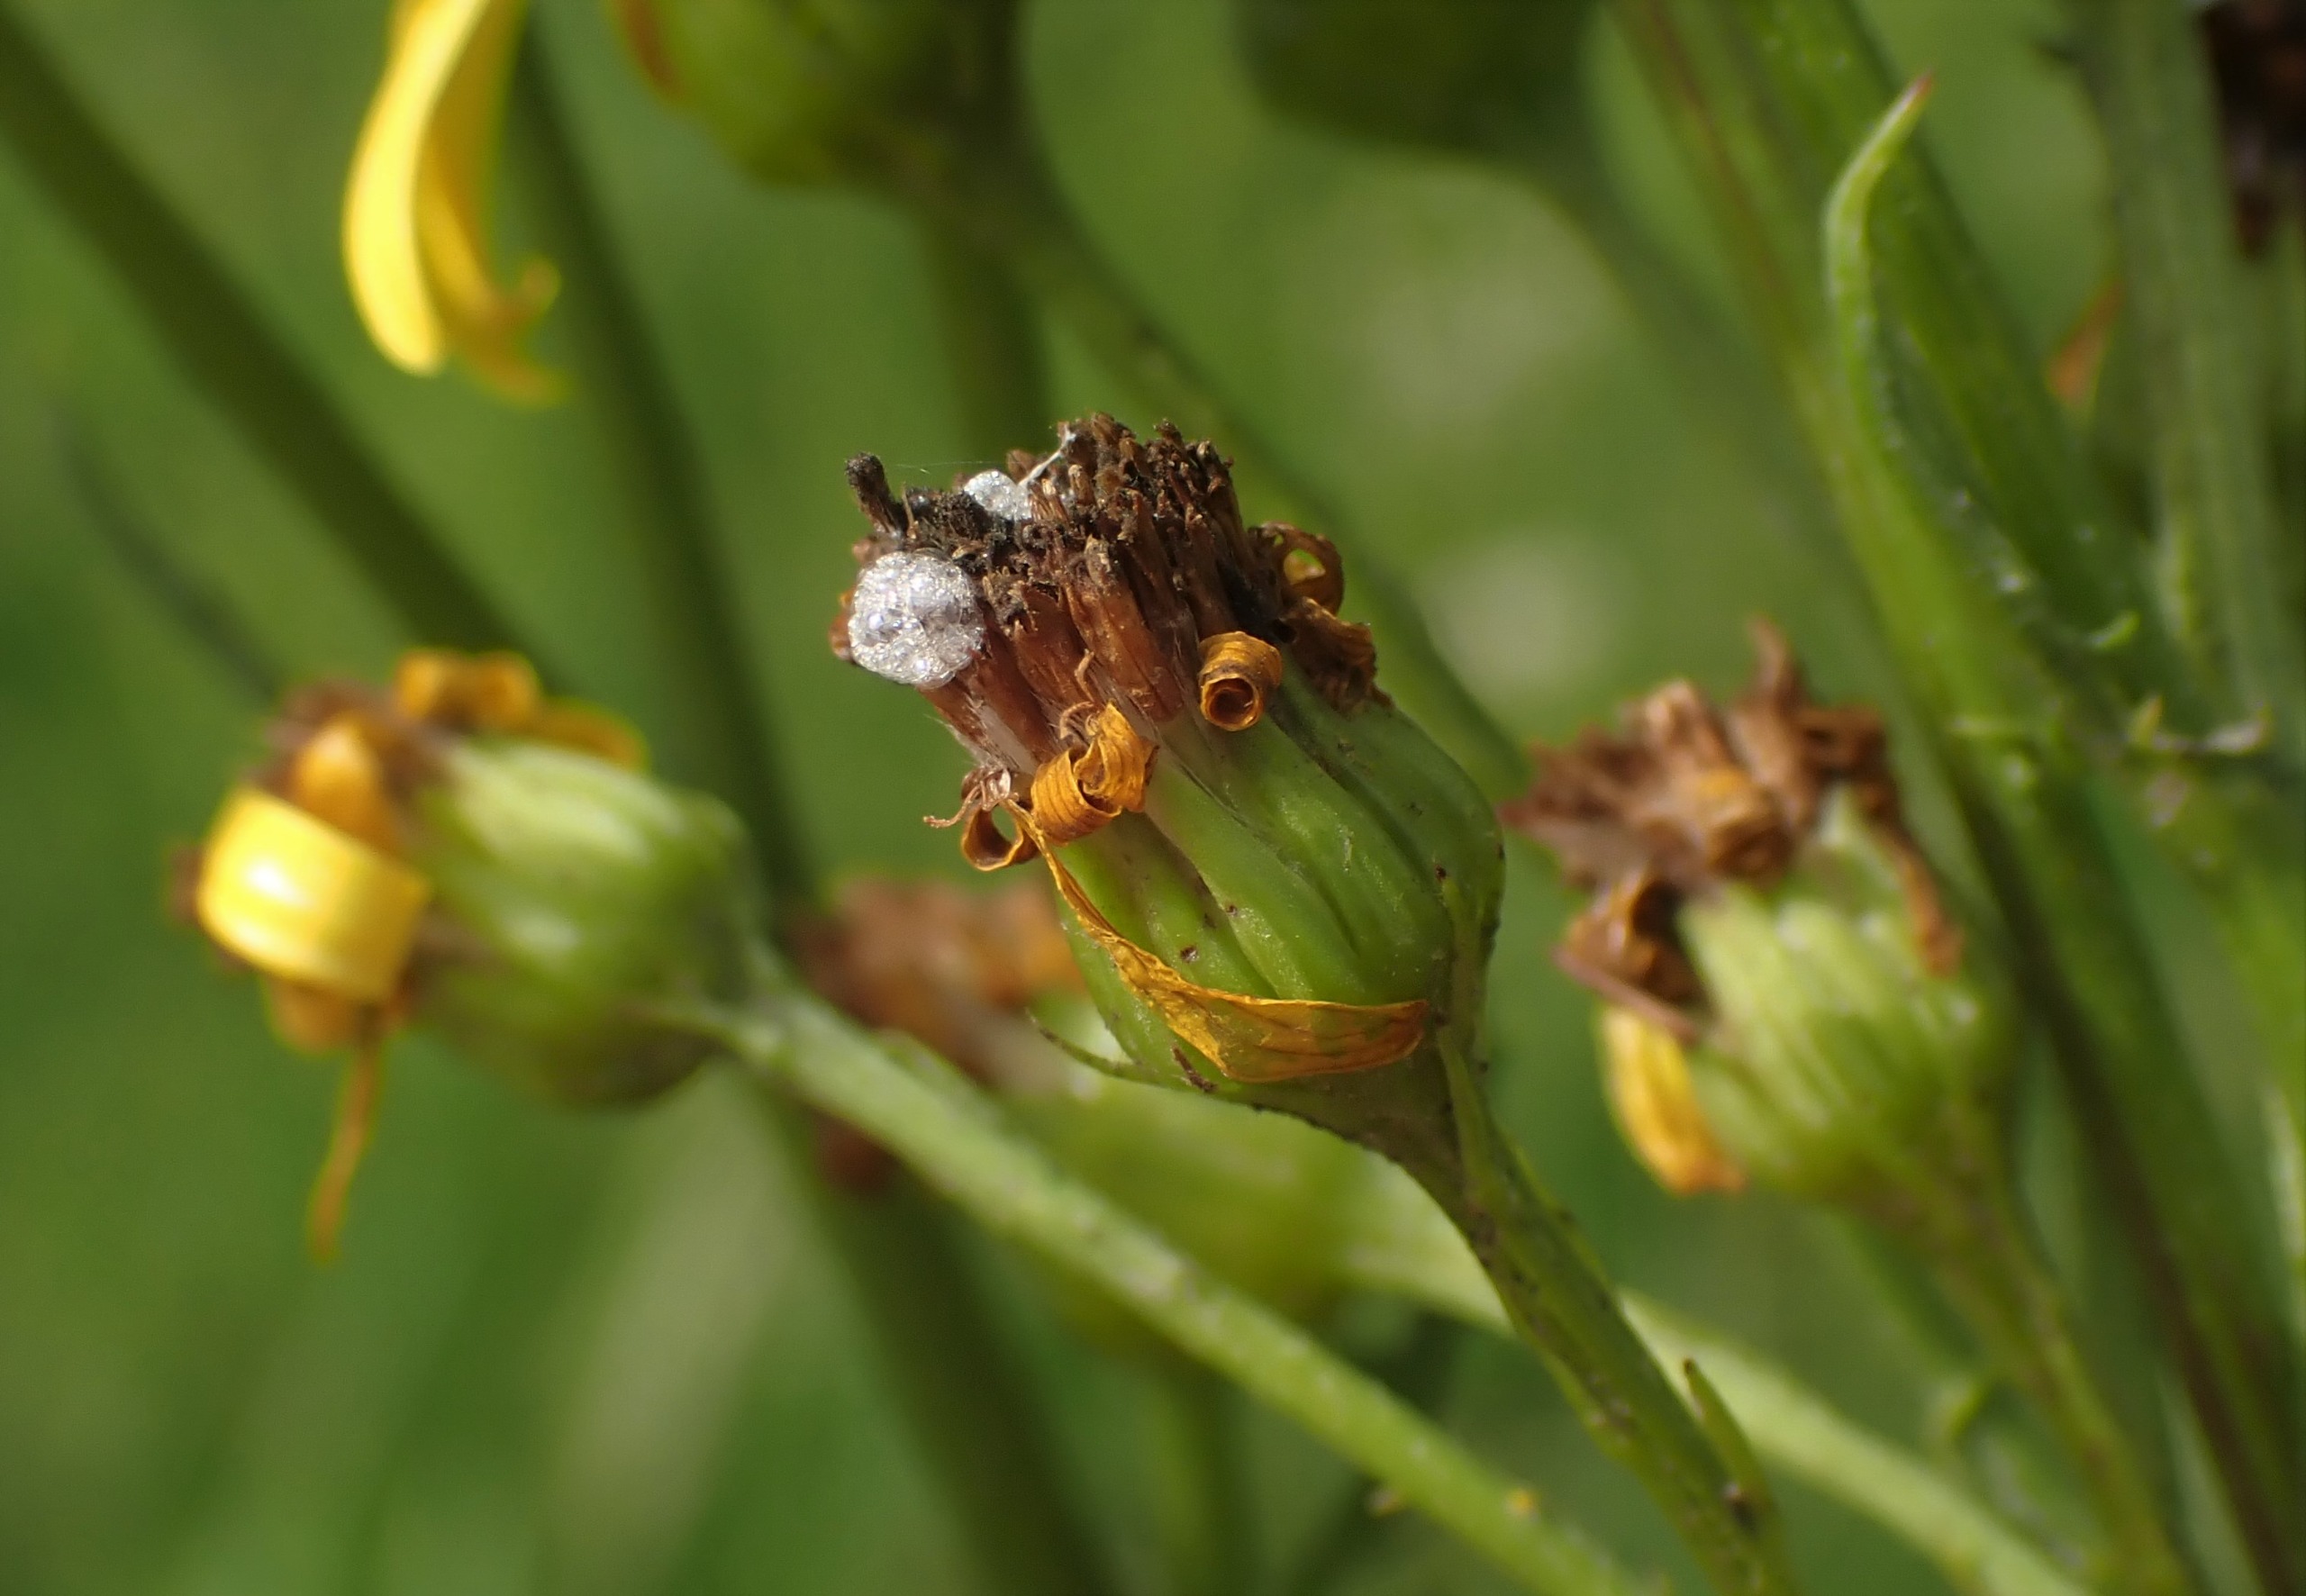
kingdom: Animalia
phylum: Arthropoda
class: Insecta
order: Diptera
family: Anthomyiidae
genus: Botanophila
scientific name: Botanophila seneciella
